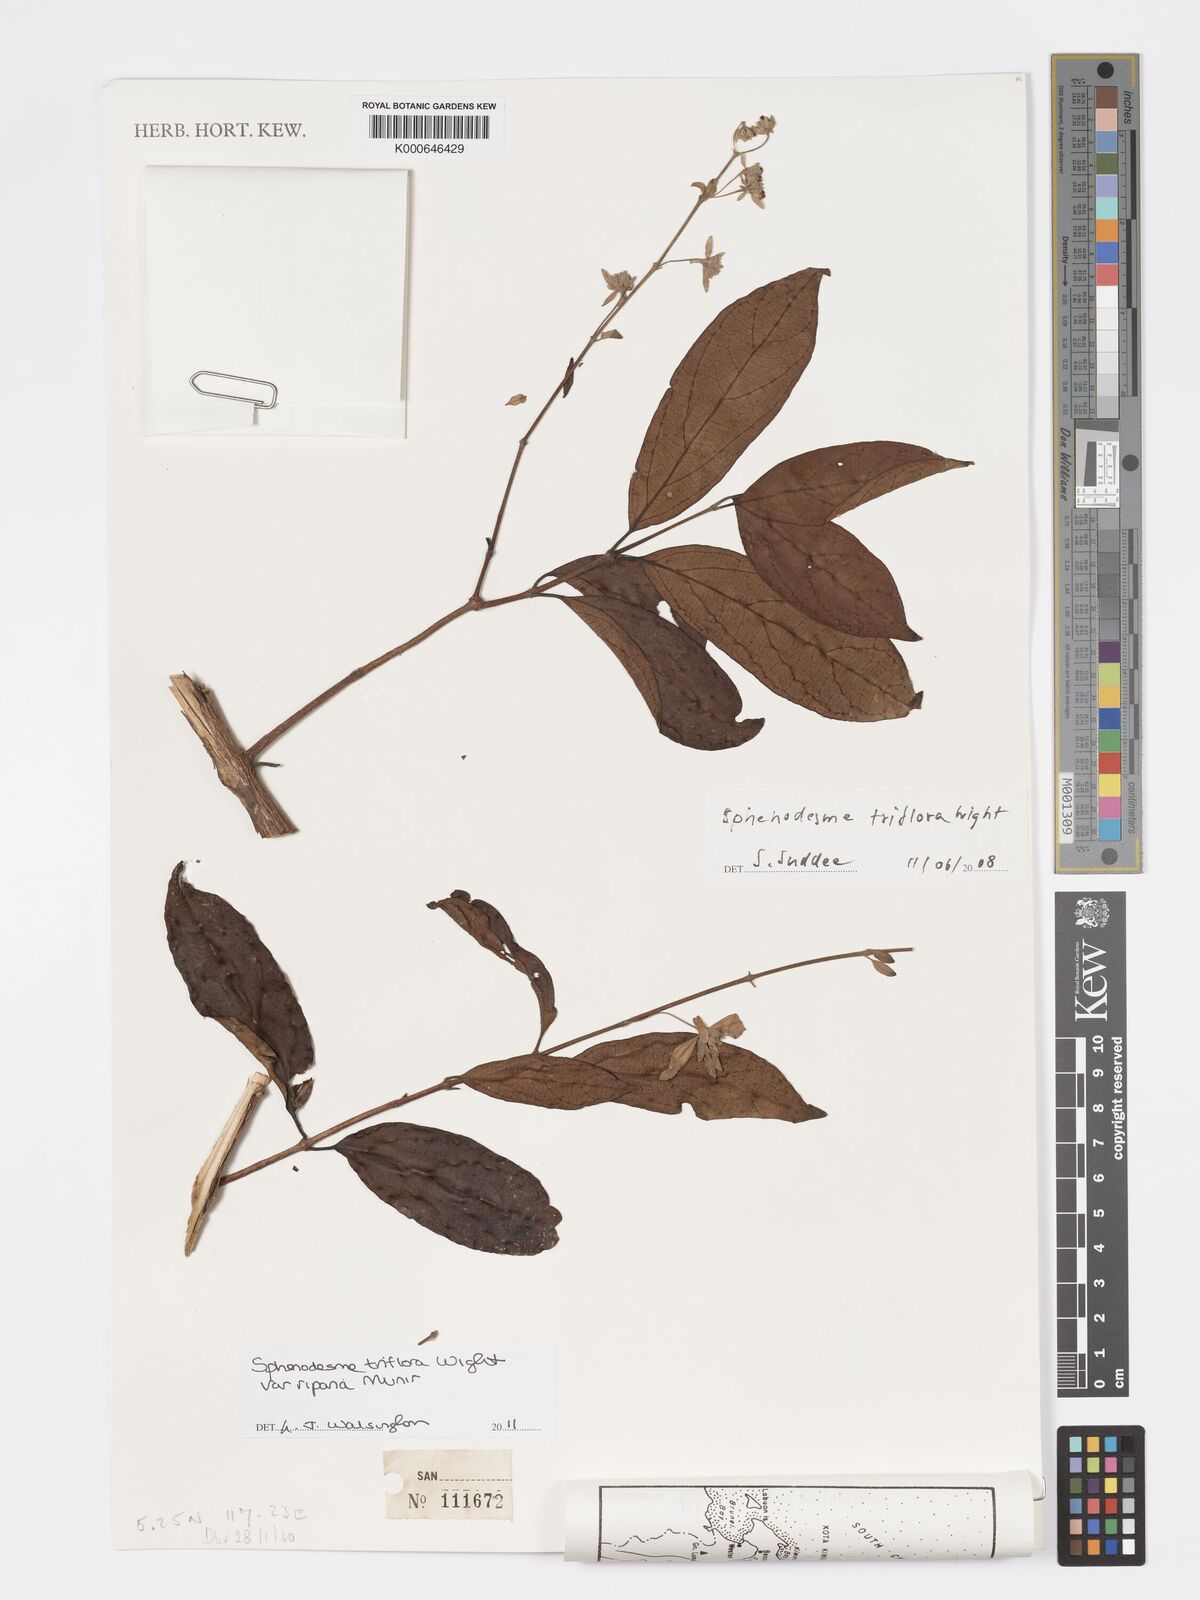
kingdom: Plantae
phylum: Tracheophyta
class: Magnoliopsida
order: Lamiales
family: Lamiaceae
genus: Sphenodesme
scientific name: Sphenodesme triflora
